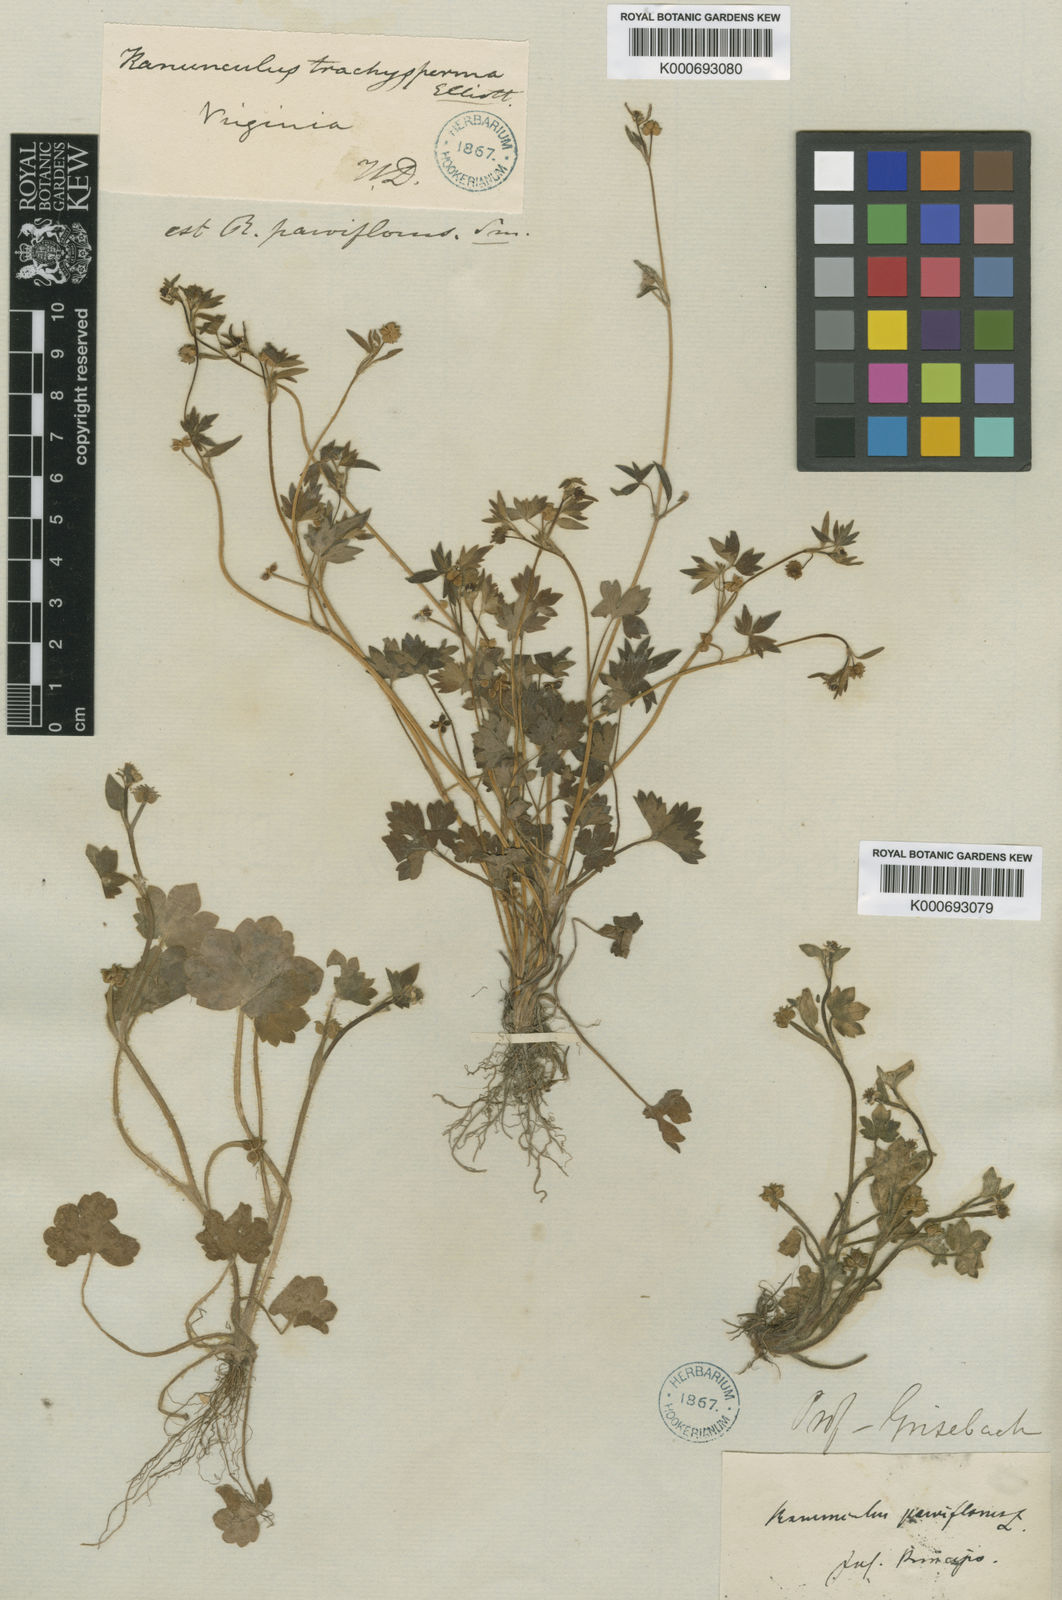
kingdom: Plantae
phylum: Tracheophyta
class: Magnoliopsida
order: Ranunculales
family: Ranunculaceae
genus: Ranunculus
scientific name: Ranunculus
